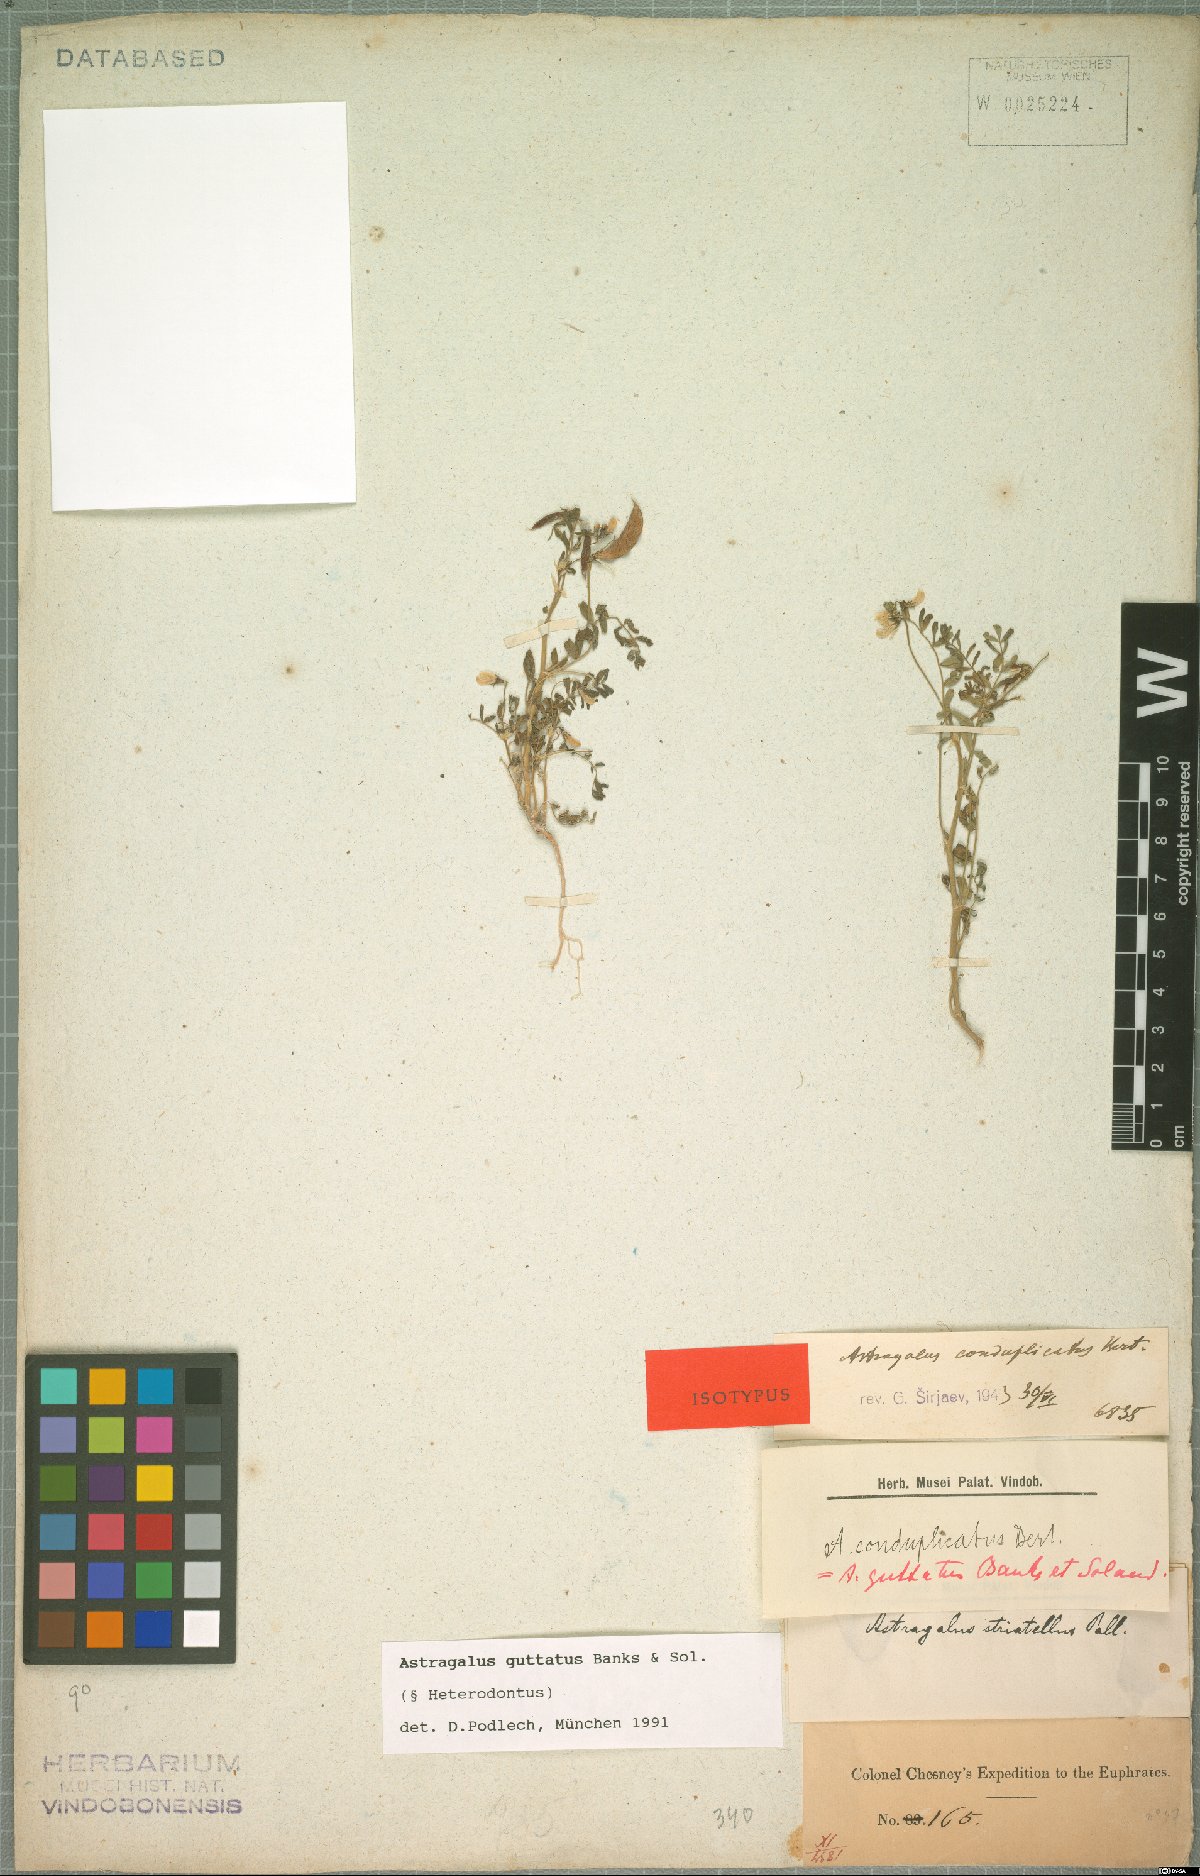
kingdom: Plantae
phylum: Tracheophyta
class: Magnoliopsida
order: Fabales
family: Fabaceae
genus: Astragalus
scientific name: Astragalus guttatus
